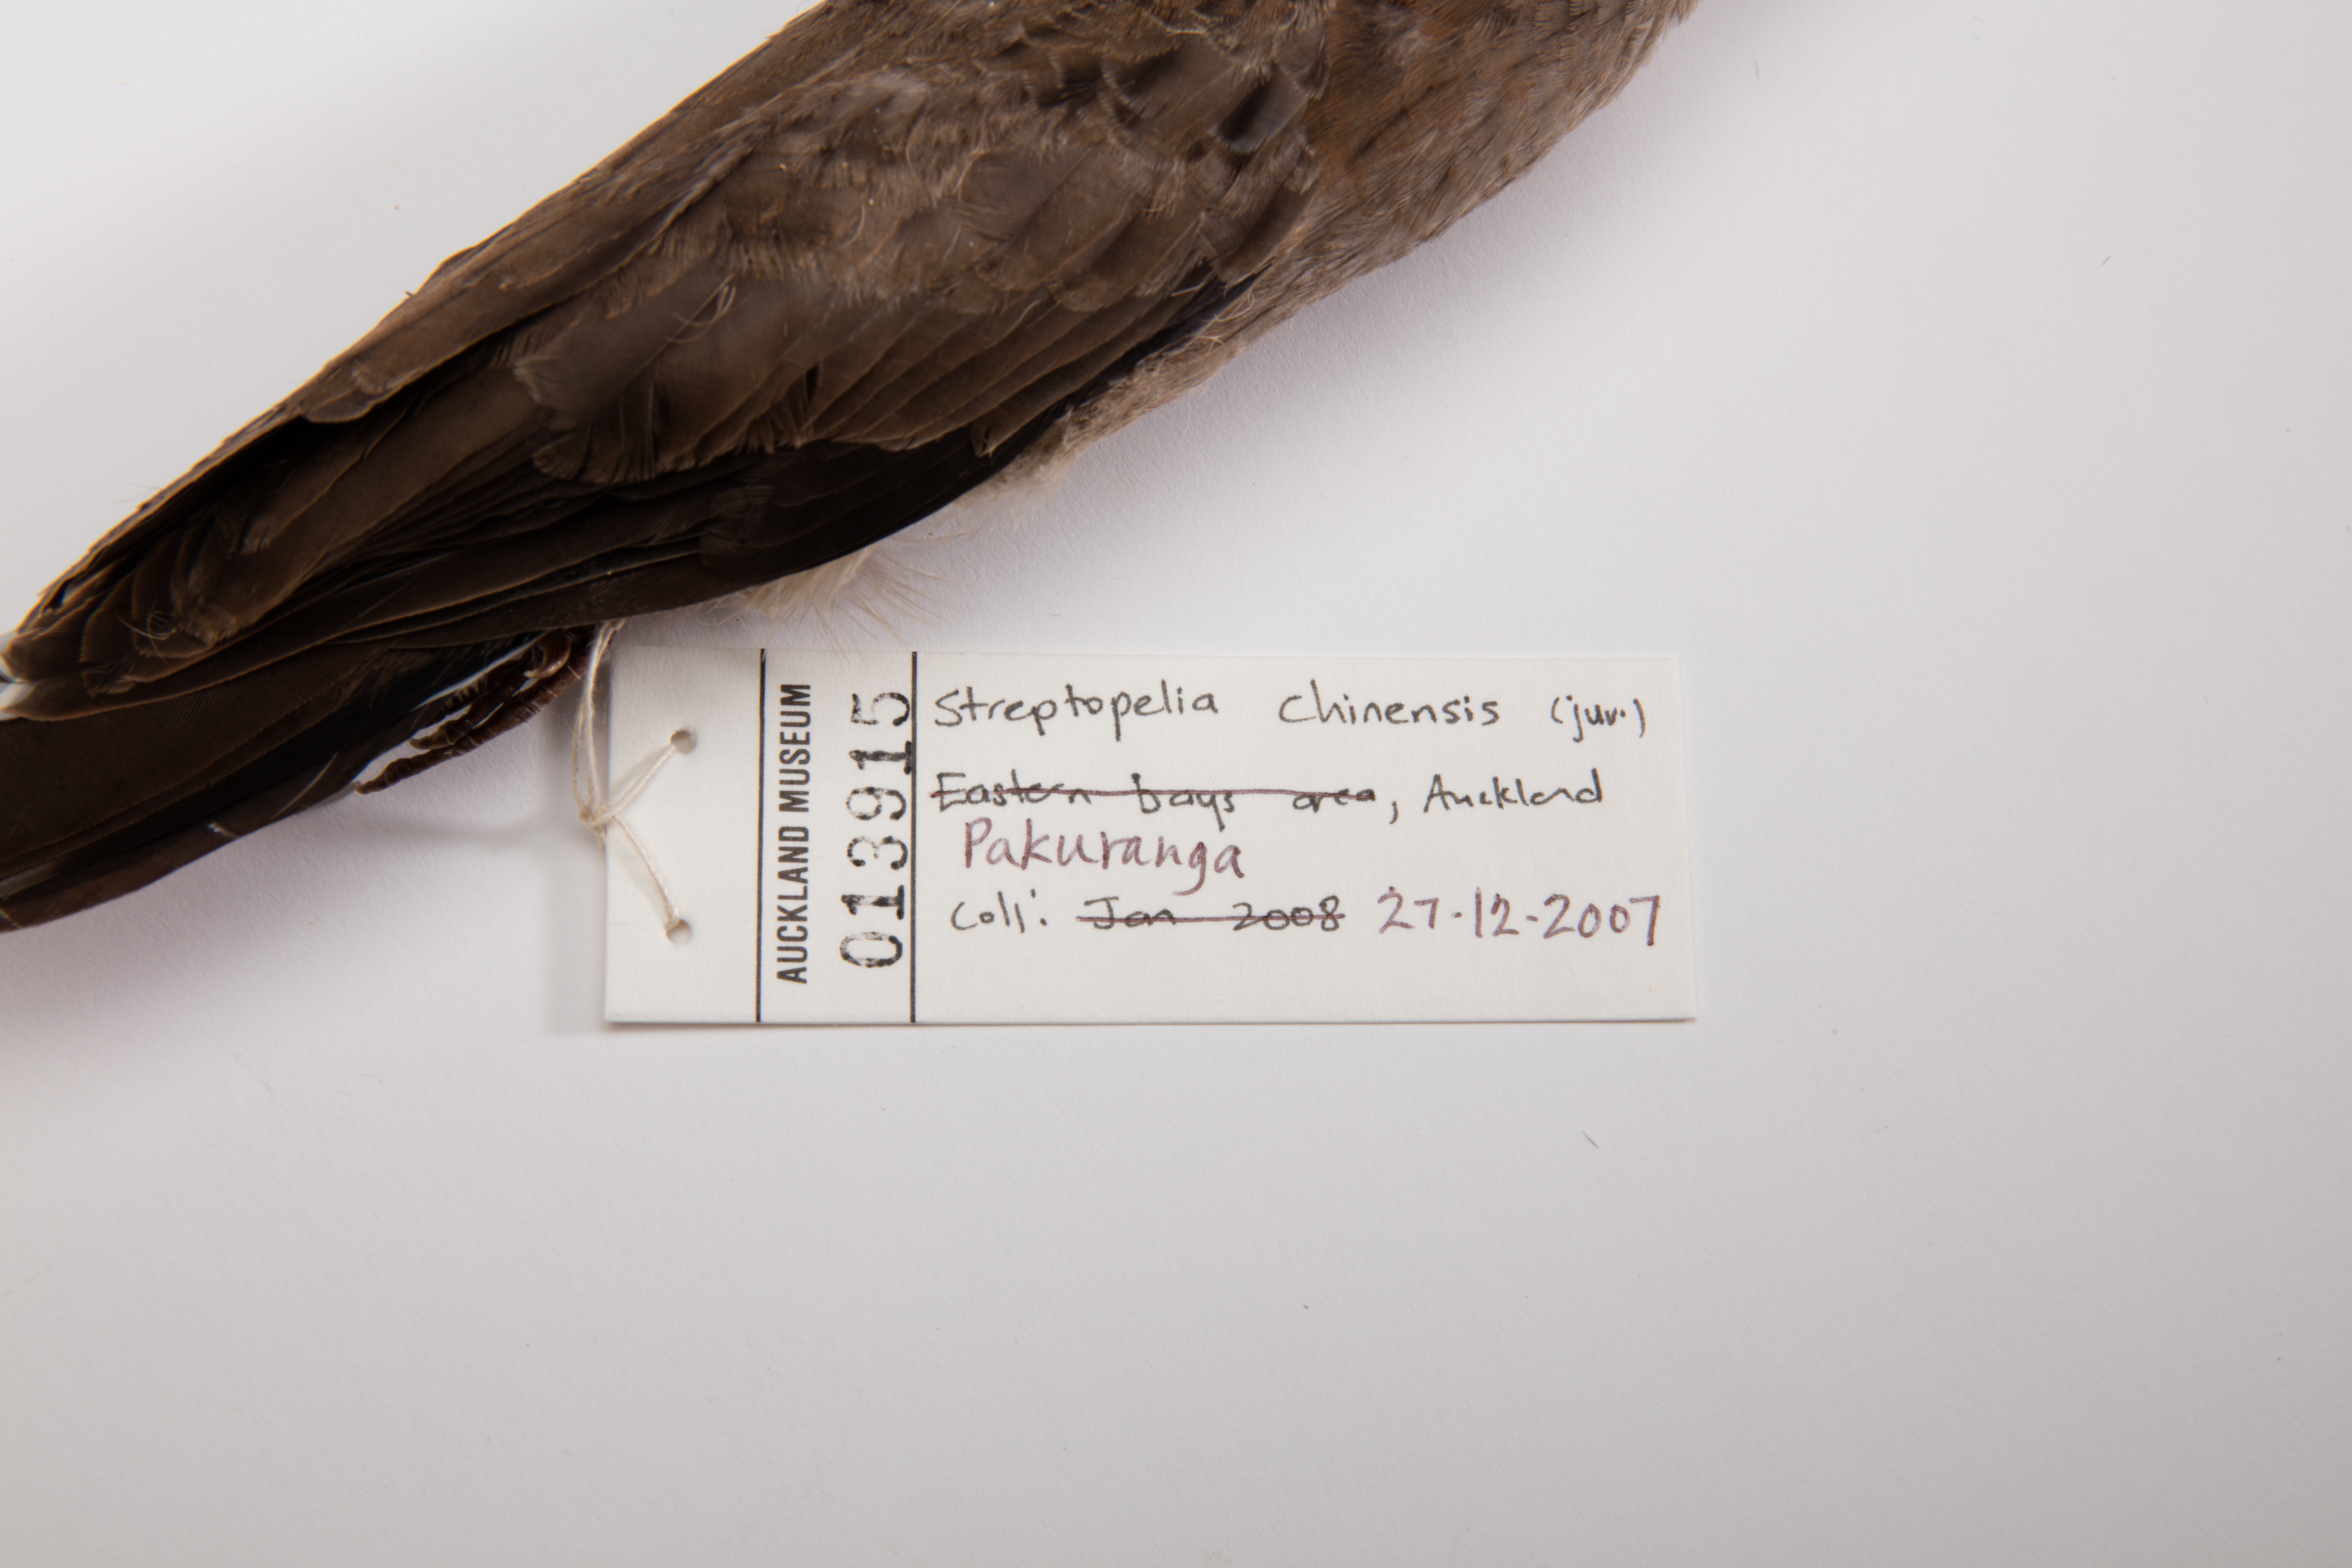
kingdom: Animalia
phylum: Chordata
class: Aves
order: Columbiformes
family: Columbidae
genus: Spilopelia
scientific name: Spilopelia chinensis
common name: Spotted dove
